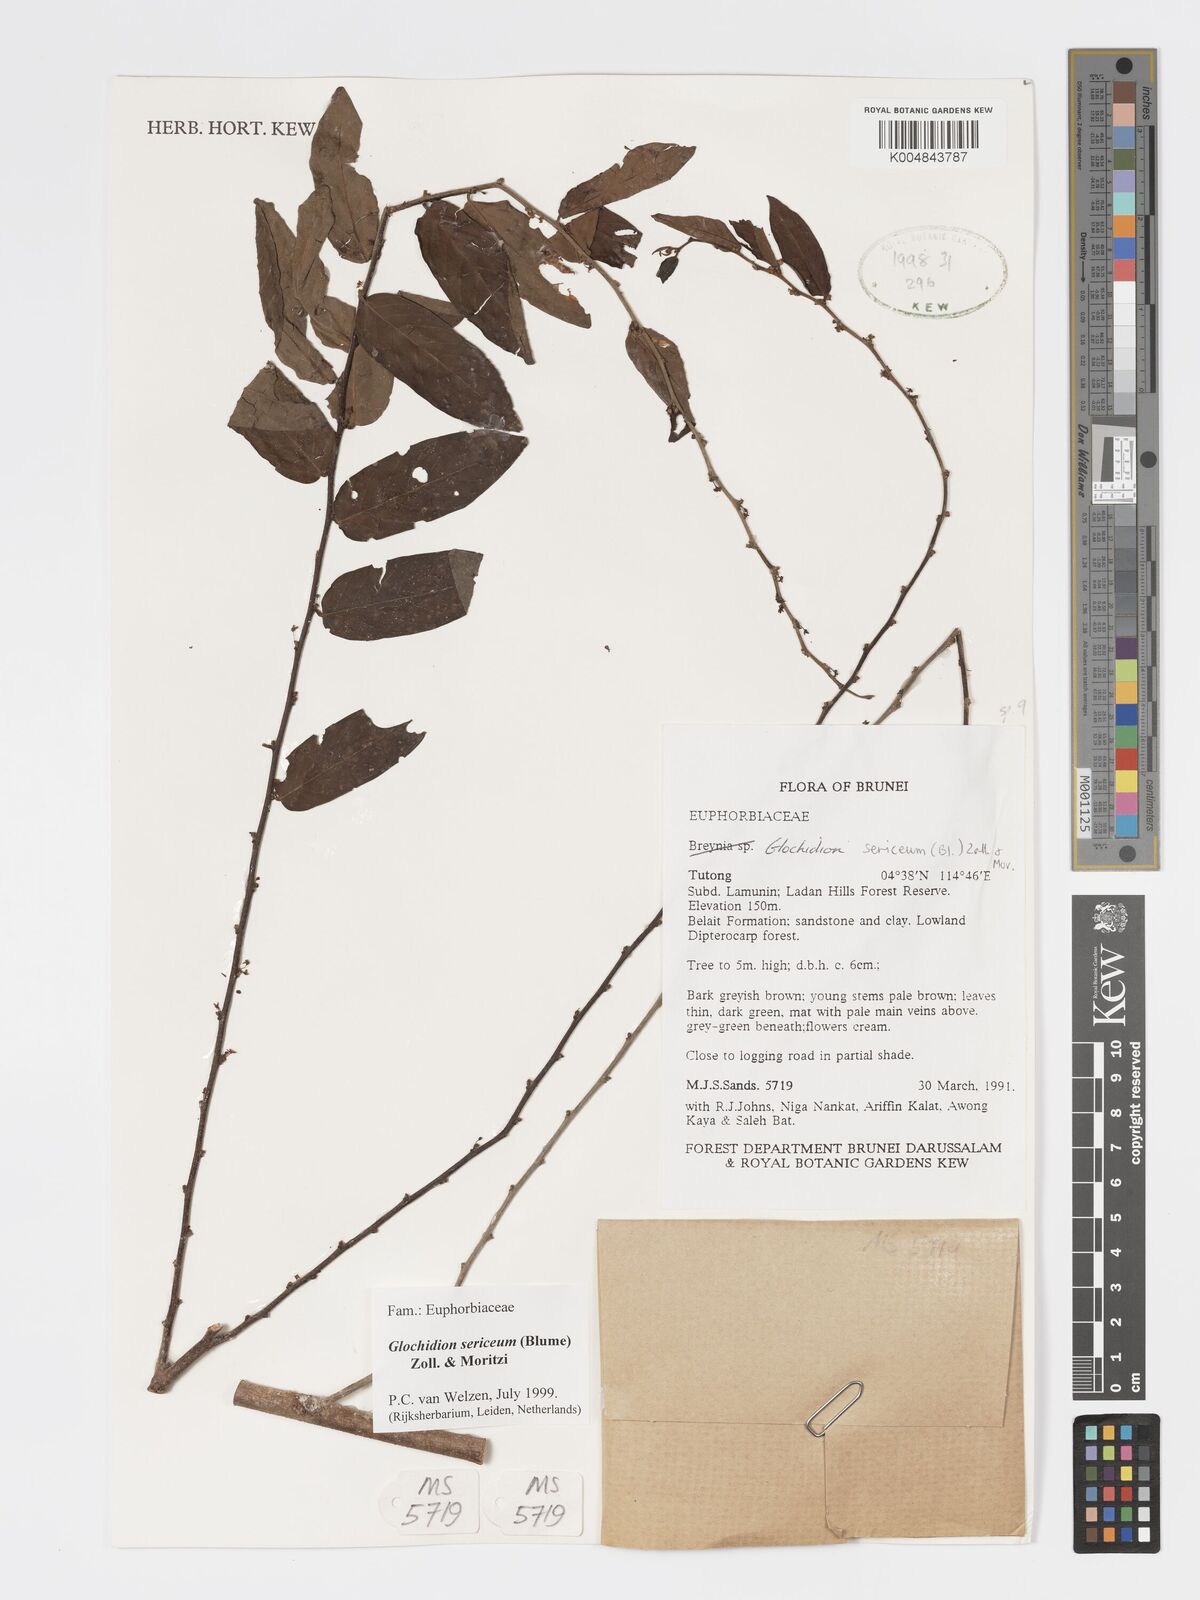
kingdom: Plantae
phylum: Tracheophyta
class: Magnoliopsida
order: Malpighiales
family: Phyllanthaceae
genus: Glochidion
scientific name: Glochidion sericeum
